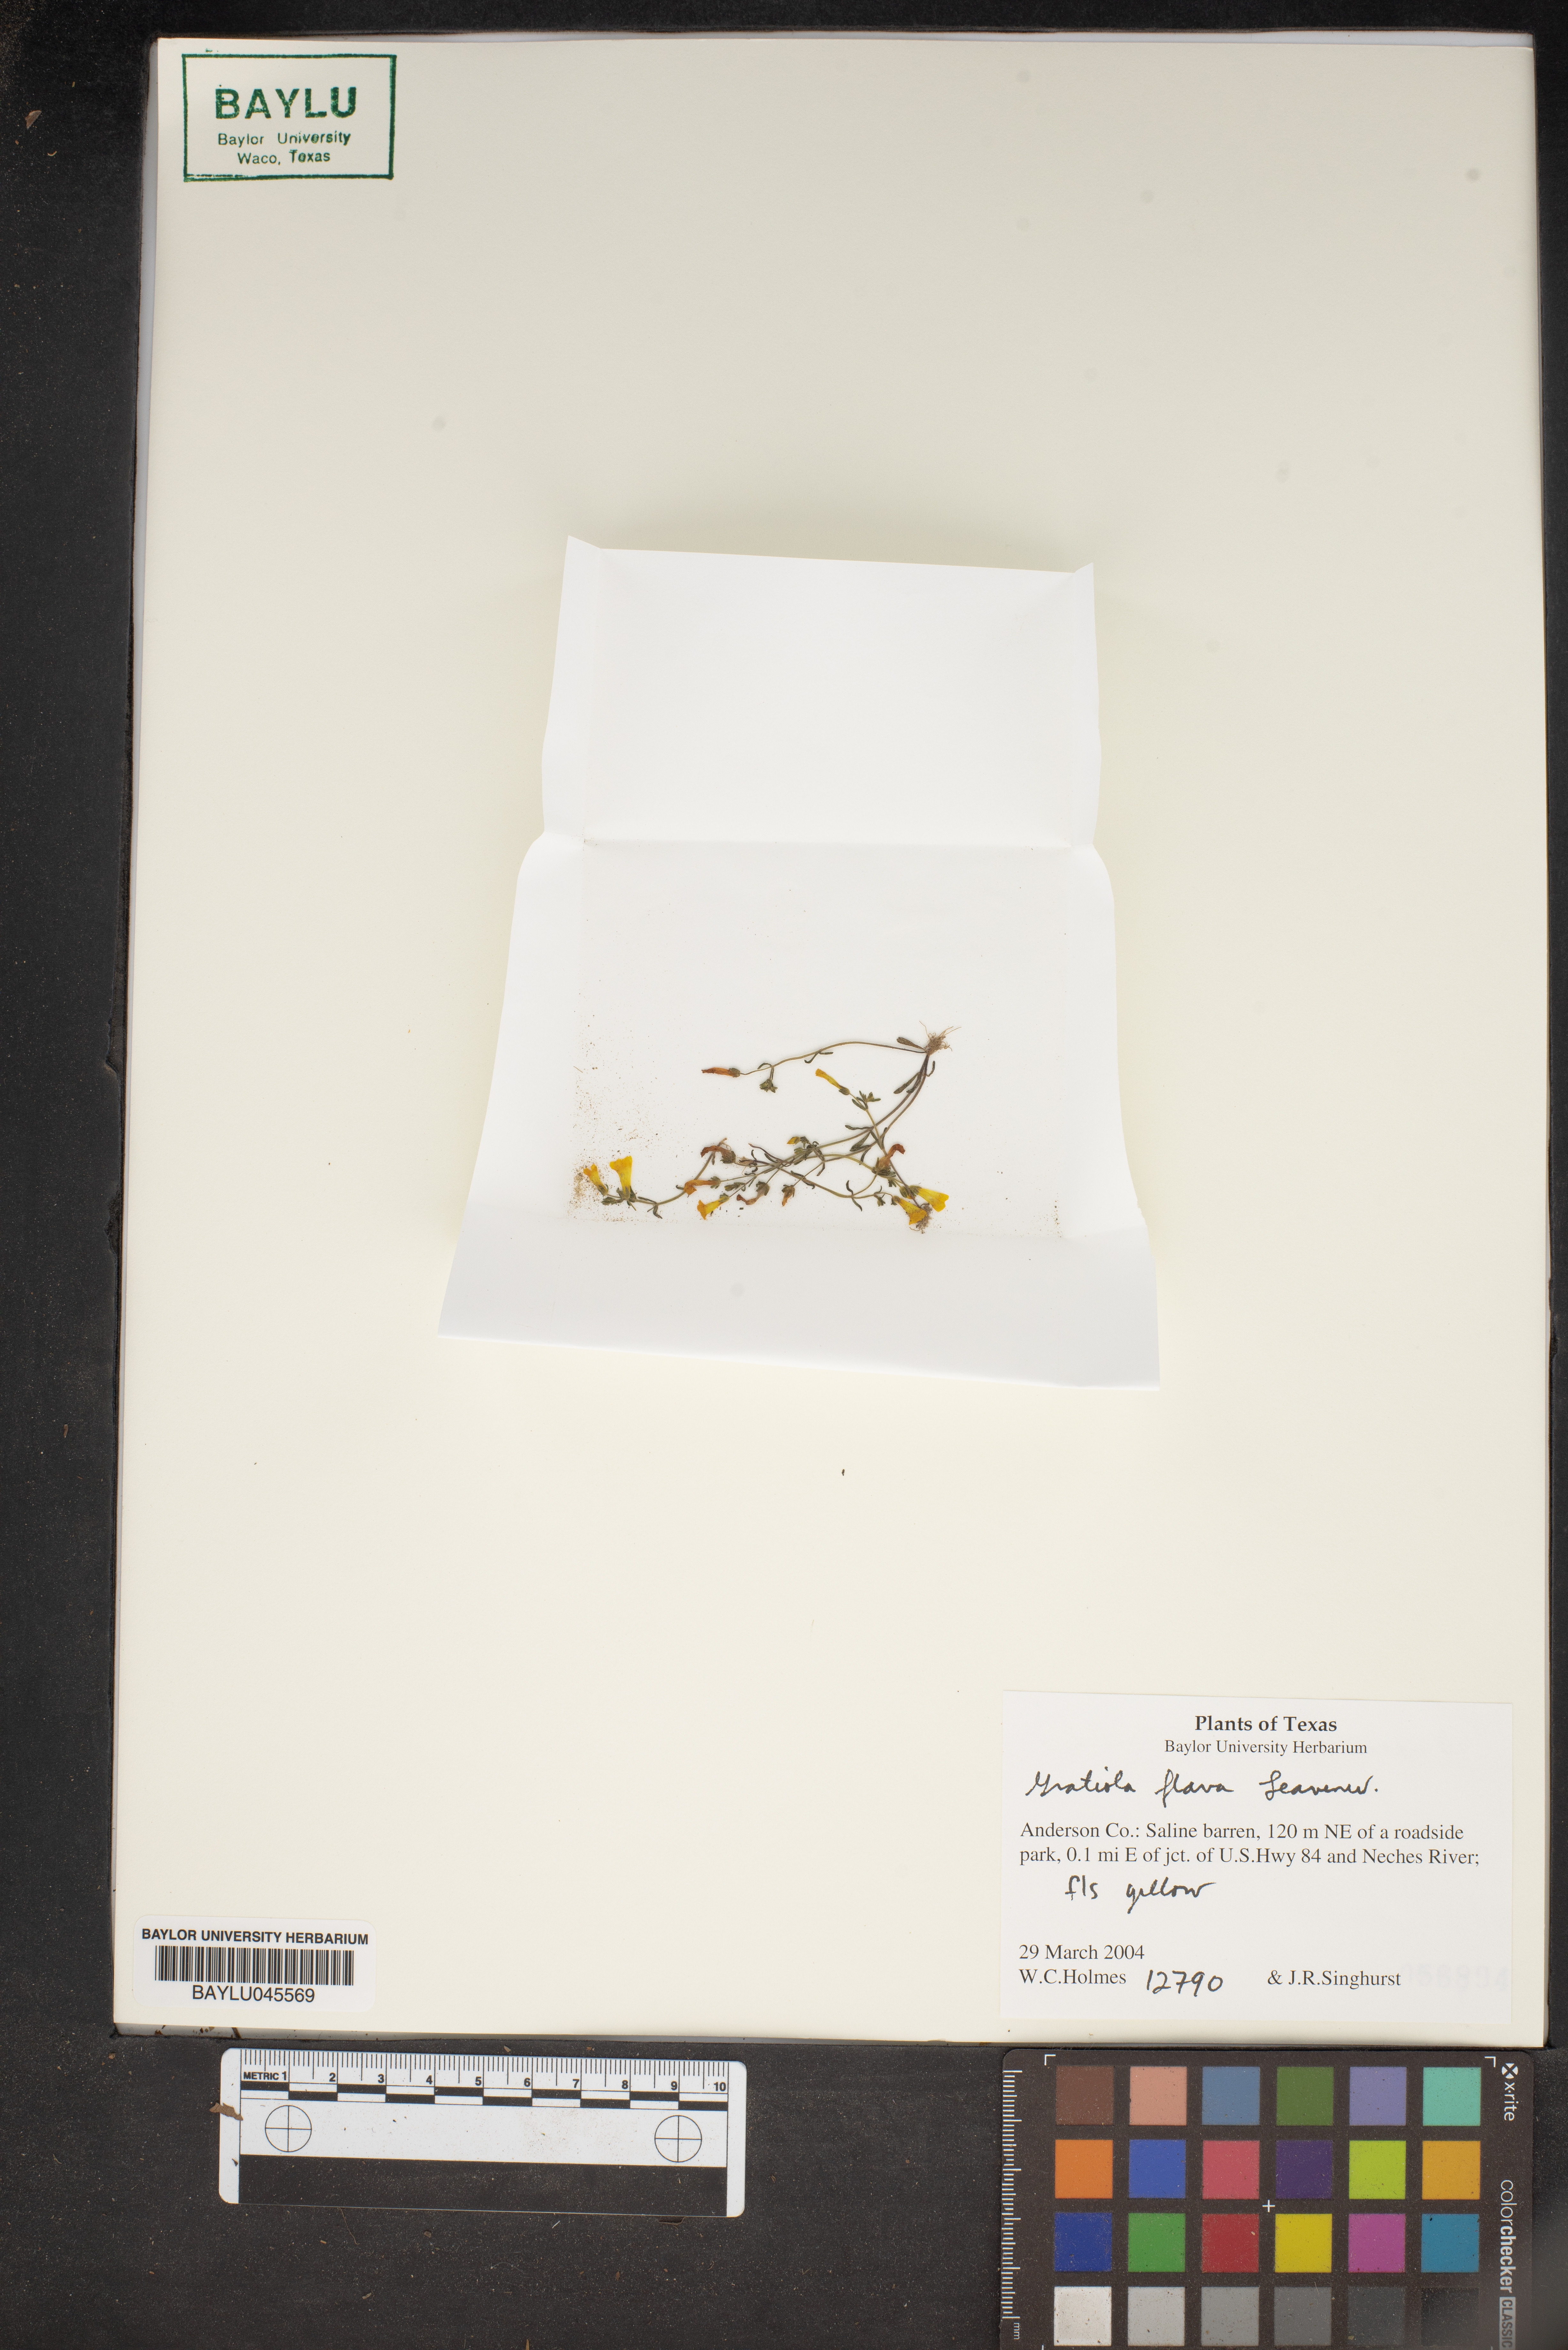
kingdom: Plantae
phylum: Tracheophyta
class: Magnoliopsida
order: Lamiales
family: Plantaginaceae
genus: Gratiola
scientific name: Gratiola flava
